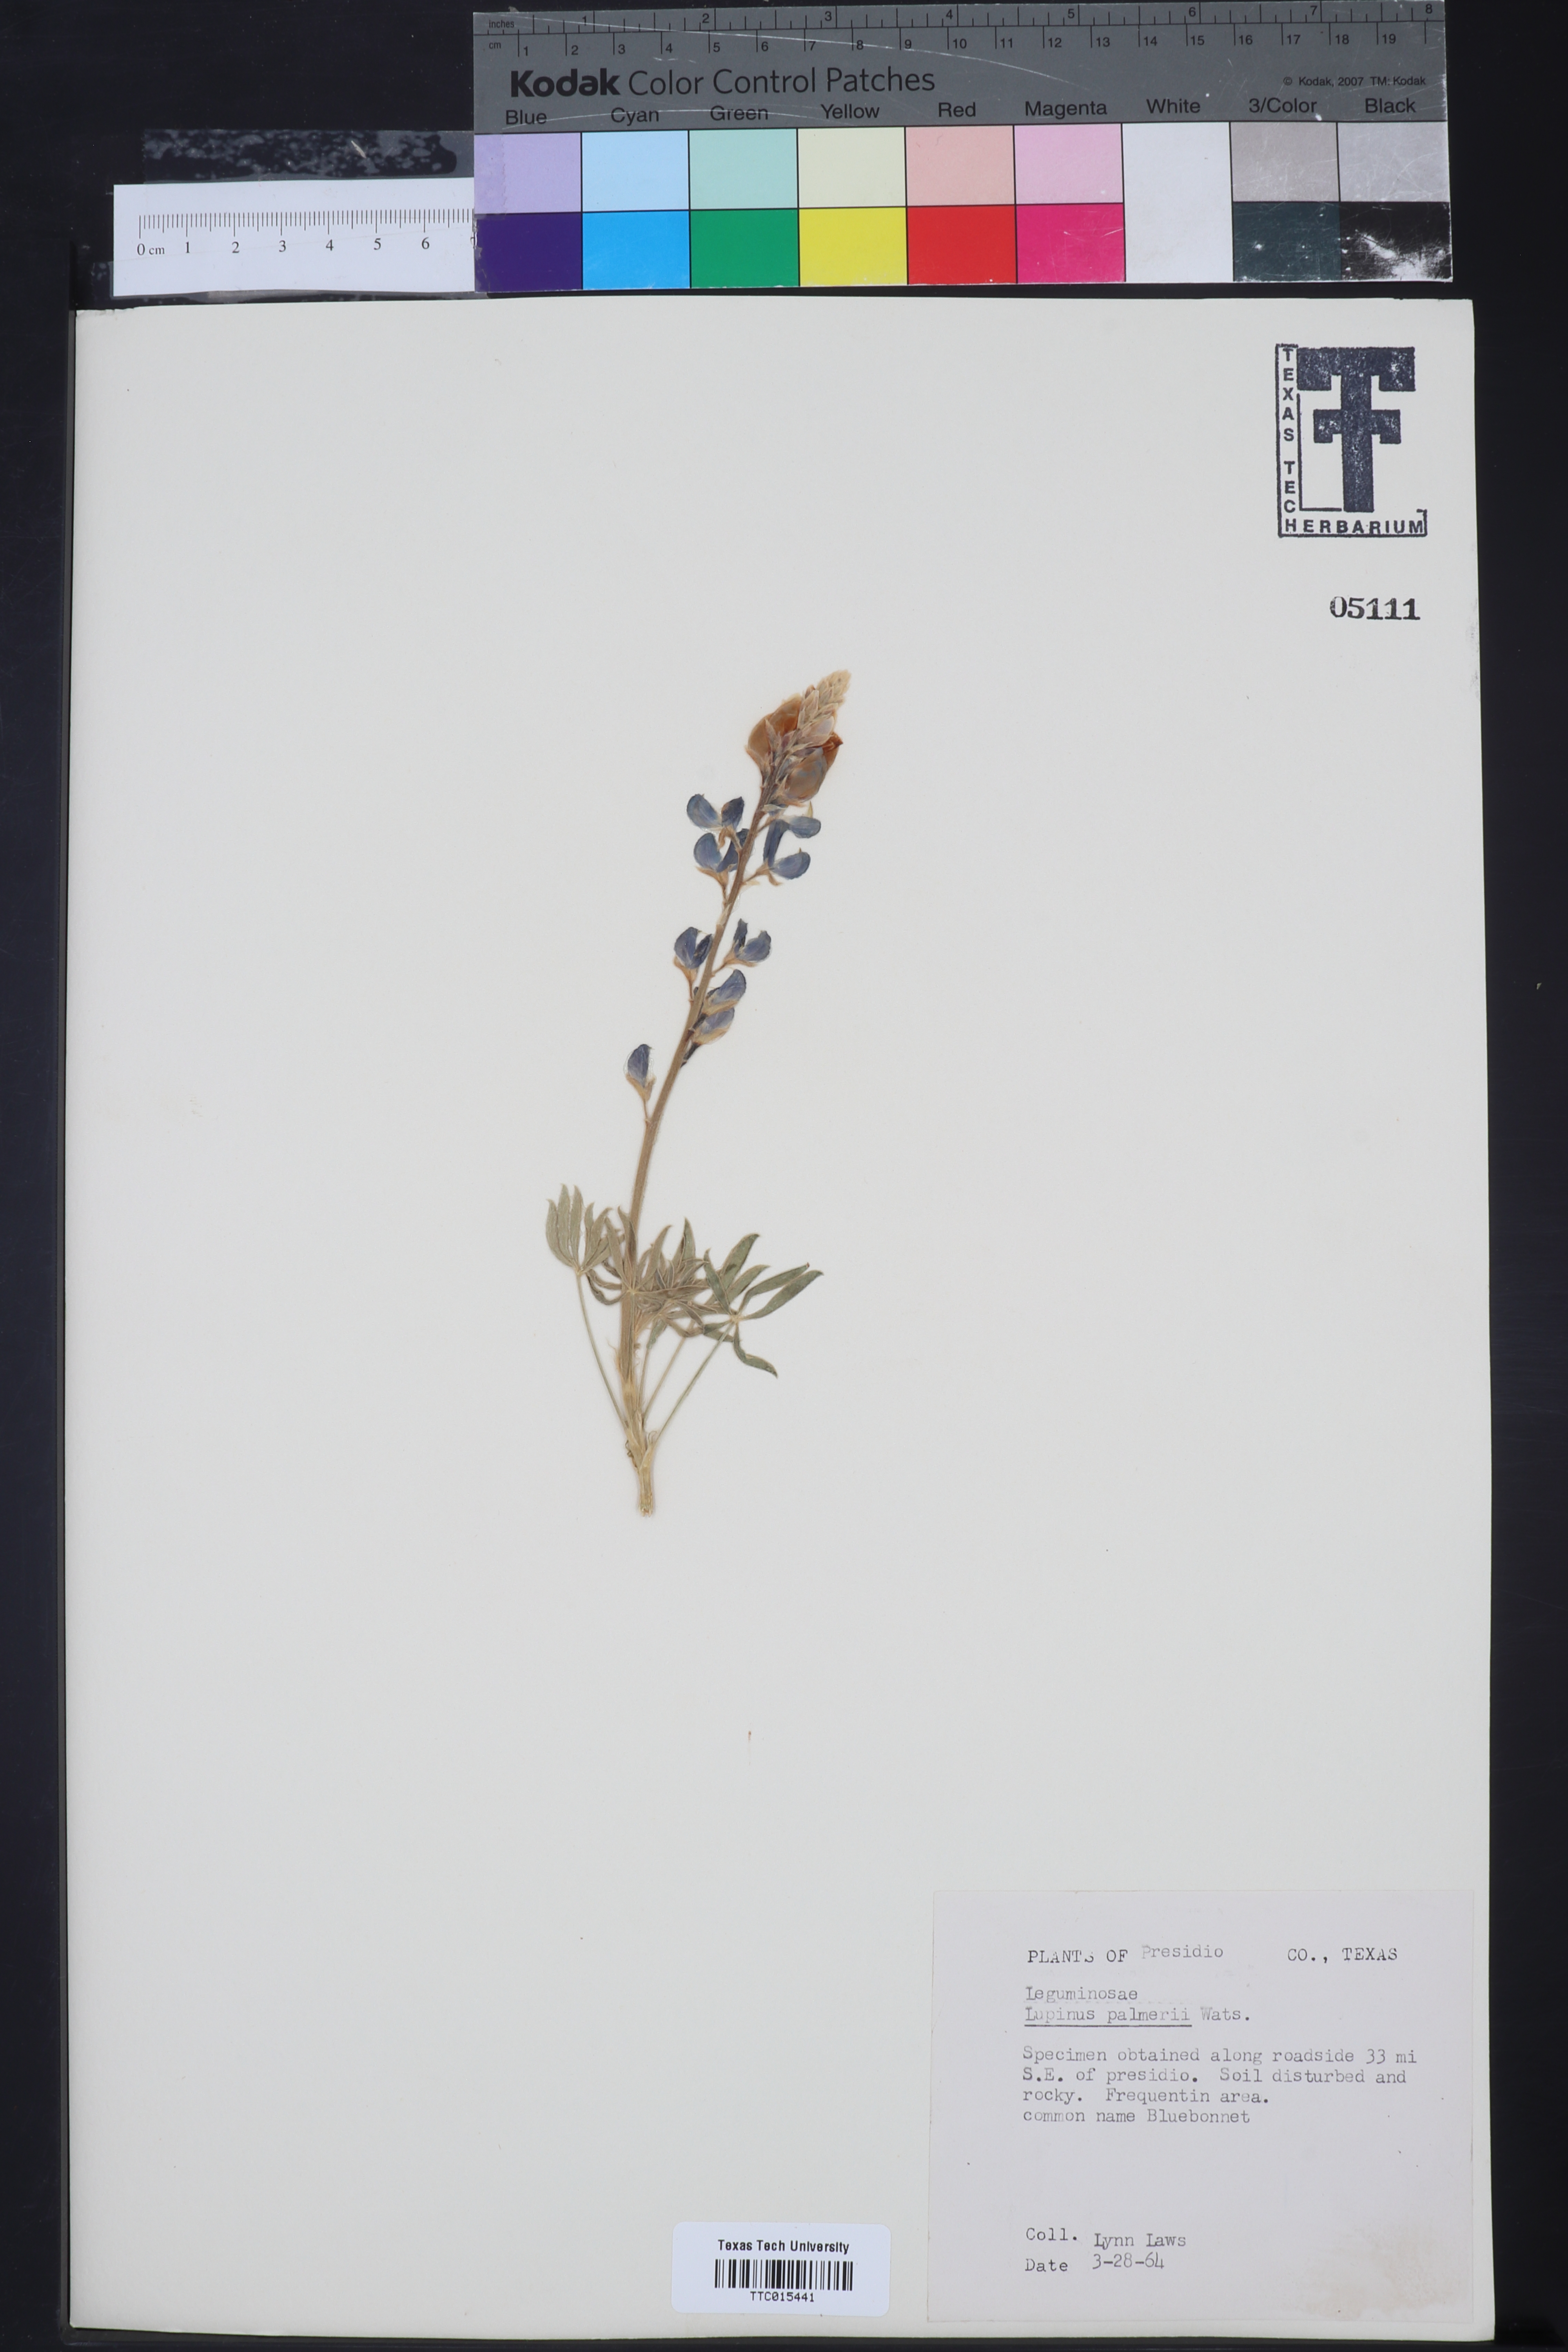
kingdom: Plantae
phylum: Tracheophyta
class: Magnoliopsida
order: Fabales
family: Fabaceae
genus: Lupinus
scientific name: Lupinus argenteus
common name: Silvery lupine
